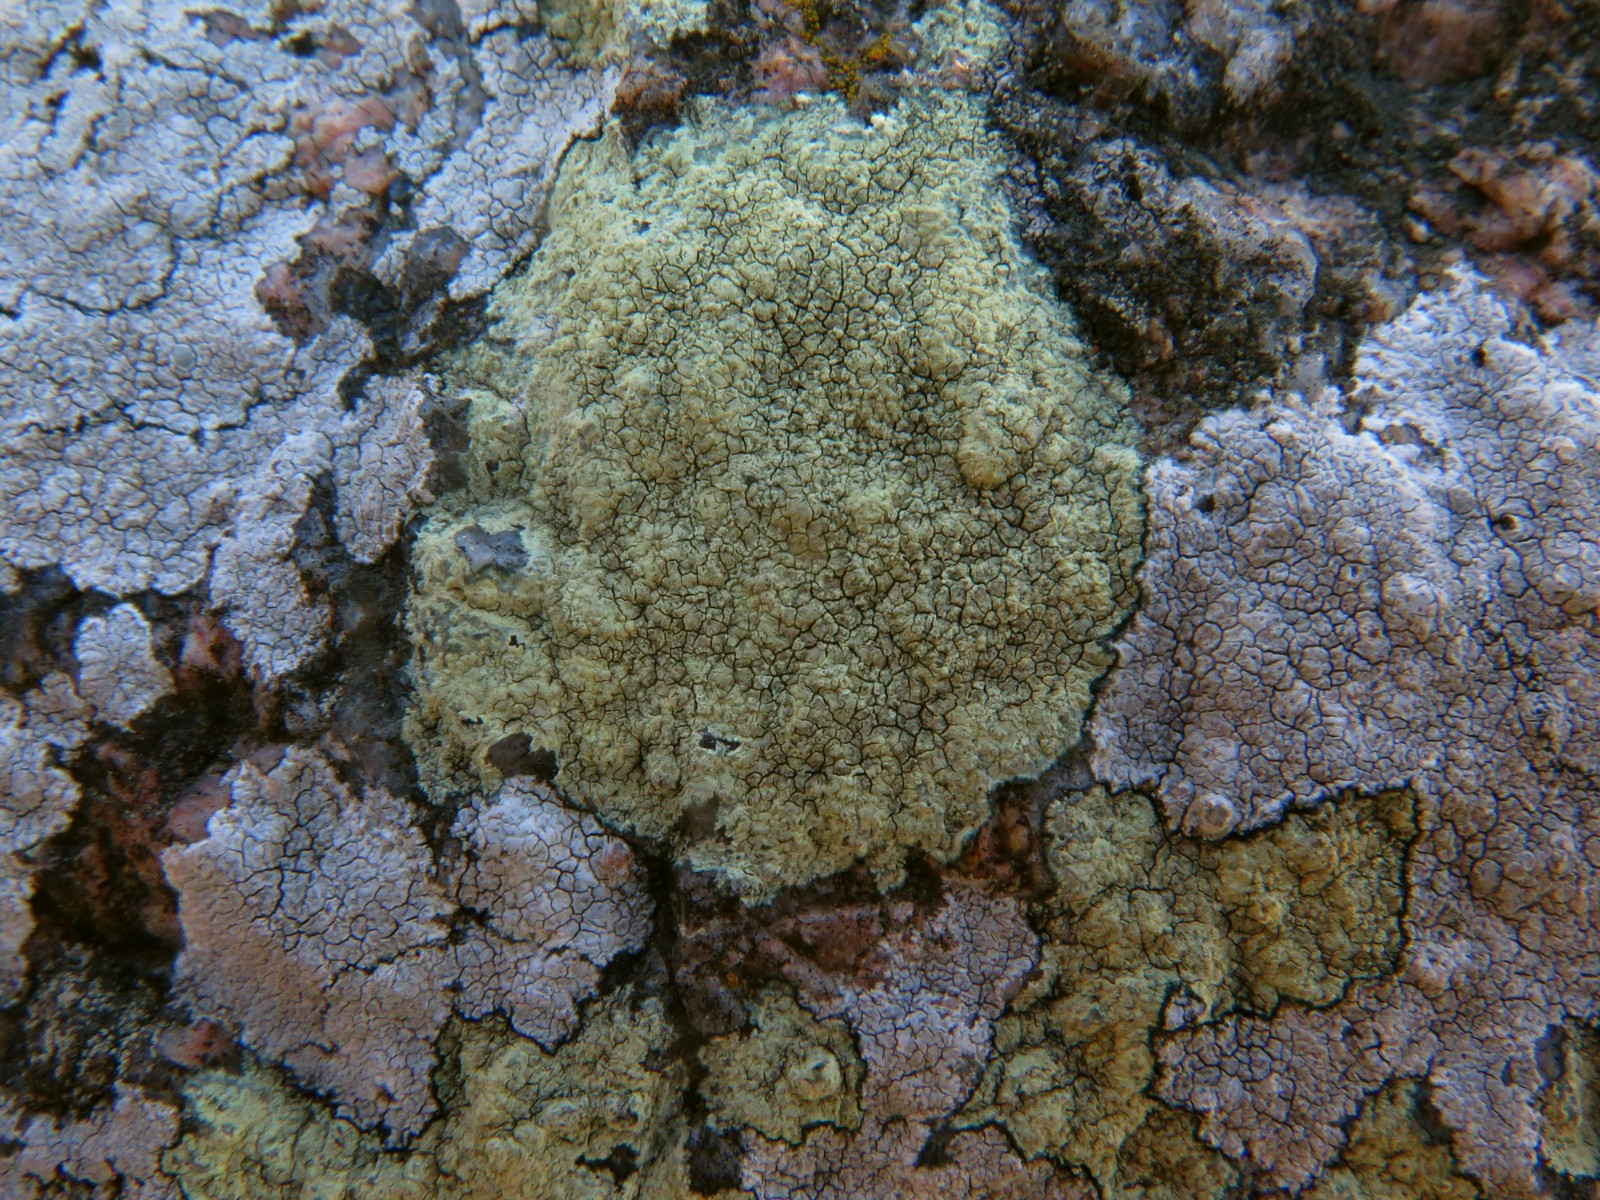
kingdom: Fungi
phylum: Ascomycota
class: Lecanoromycetes
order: Lecanorales
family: Lecanoraceae
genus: Glaucomaria
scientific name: Glaucomaria sulphurea
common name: svovlgul kantskivelav
